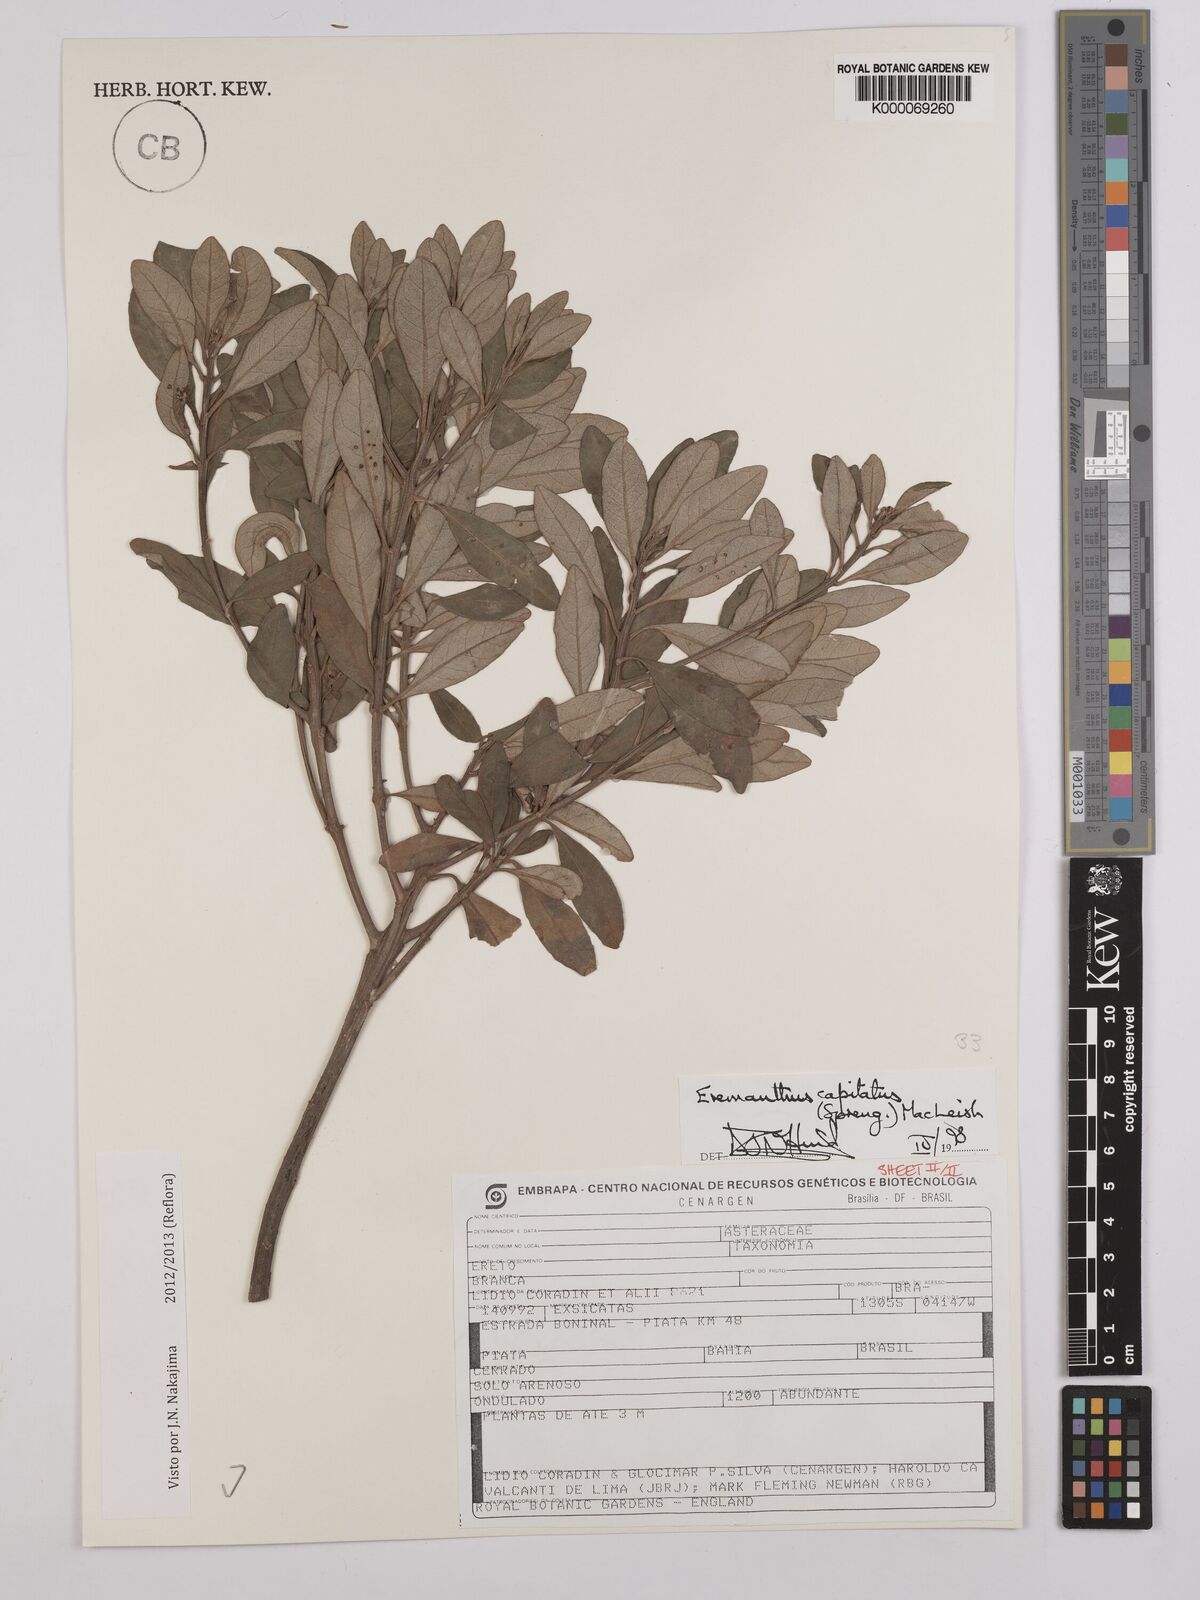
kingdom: Plantae
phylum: Tracheophyta
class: Magnoliopsida
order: Asterales
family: Asteraceae
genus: Eremanthus
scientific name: Eremanthus capitatus
